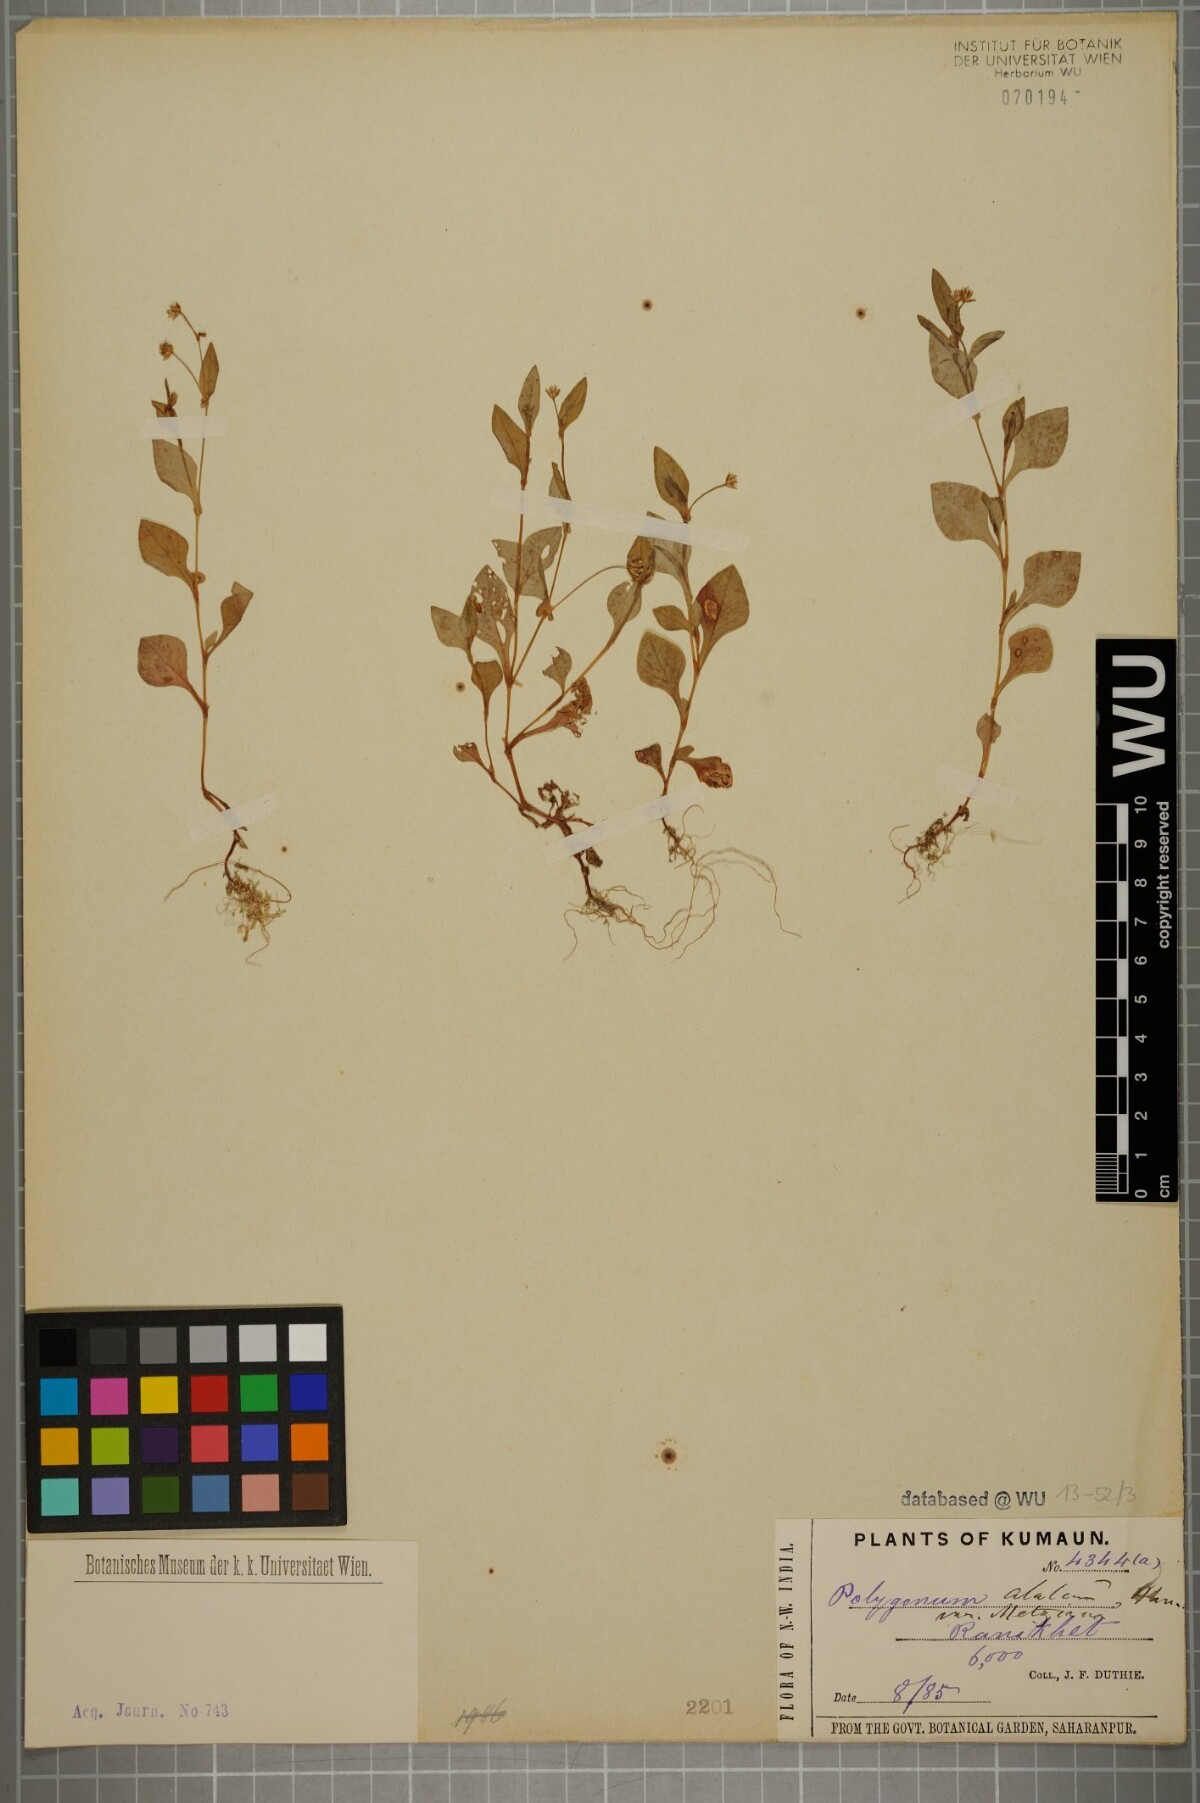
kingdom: Plantae
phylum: Tracheophyta
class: Magnoliopsida
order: Caryophyllales
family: Polygonaceae
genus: Persicaria
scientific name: Persicaria nepalensis
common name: Nepal persicaria
